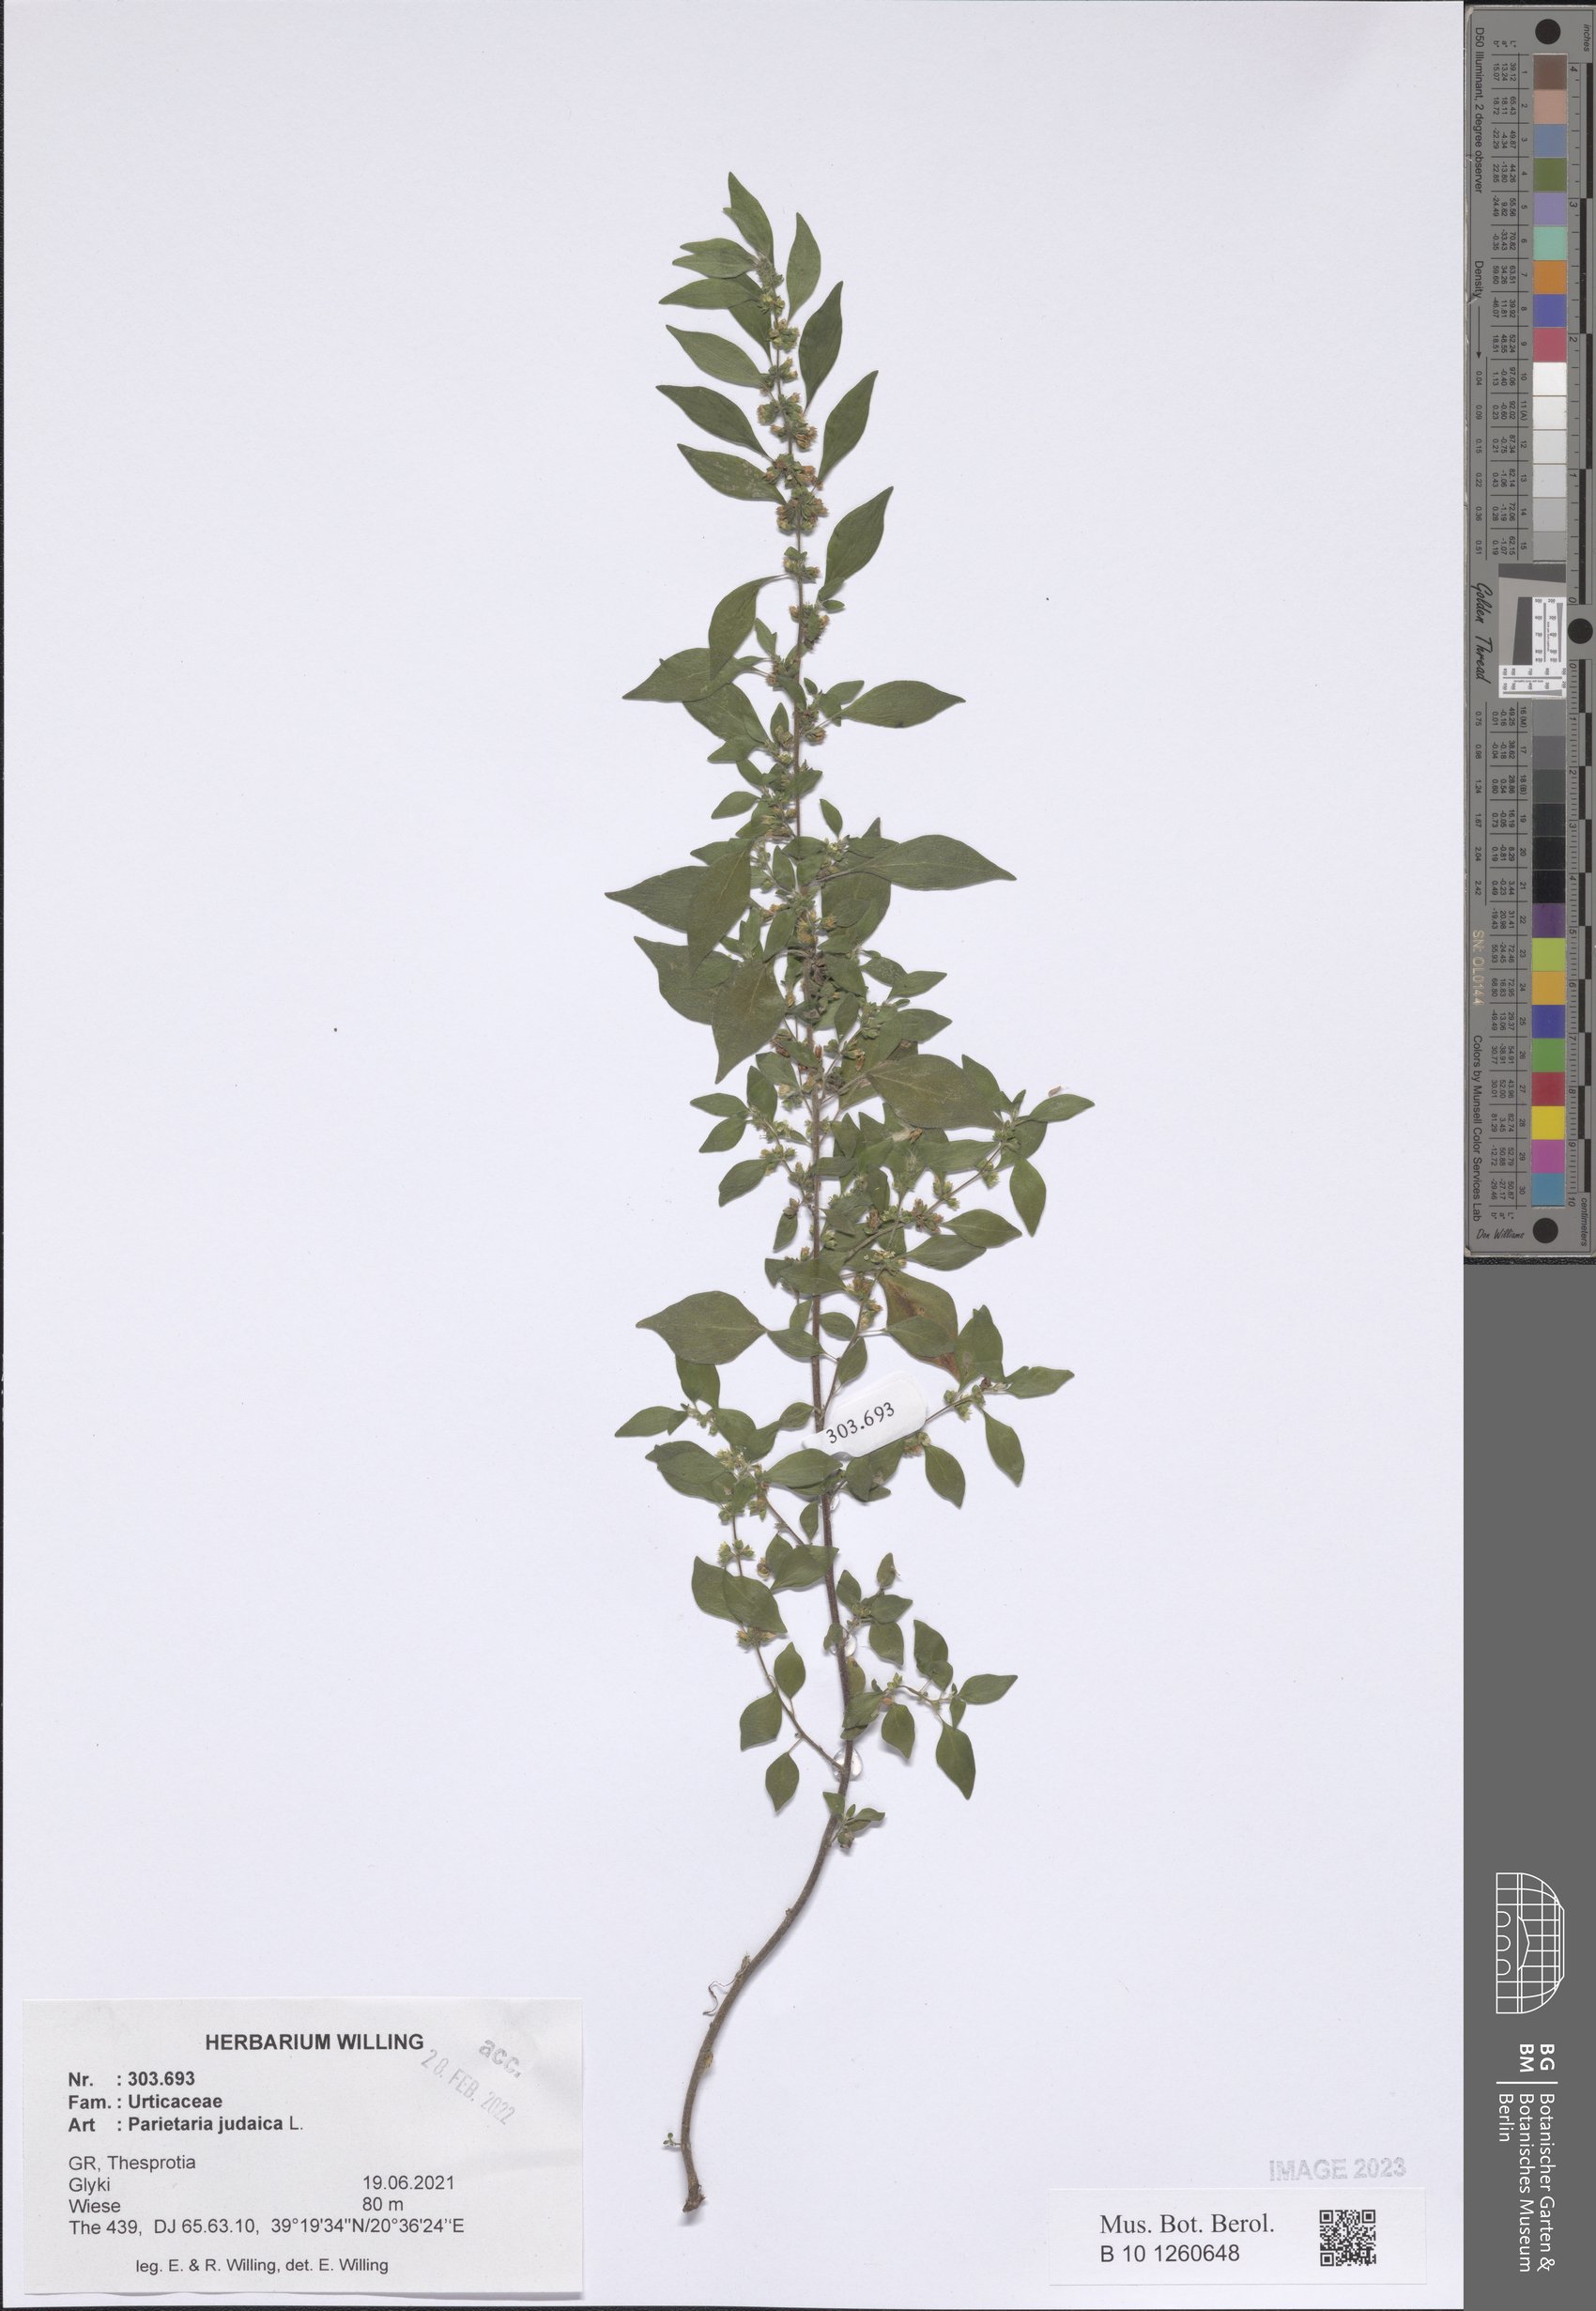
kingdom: Plantae
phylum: Tracheophyta
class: Magnoliopsida
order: Rosales
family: Urticaceae
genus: Parietaria
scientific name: Parietaria judaica
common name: Pellitory-of-the-wall
